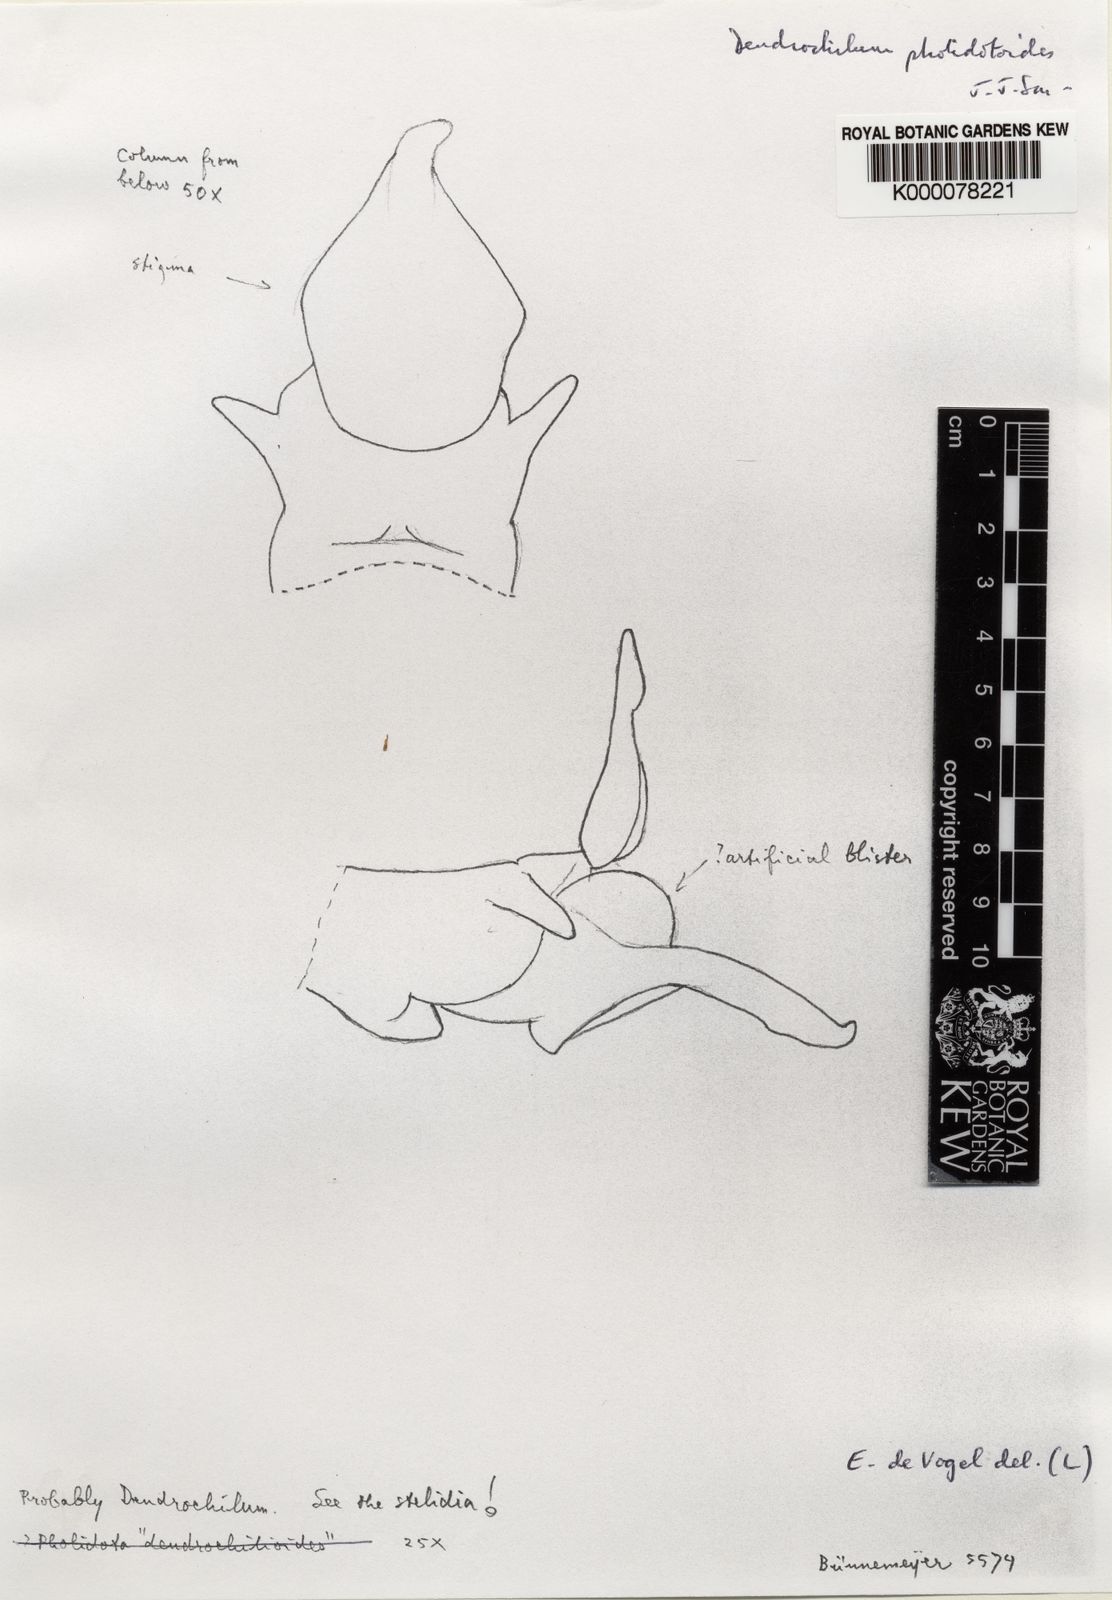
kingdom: Plantae
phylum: Tracheophyta
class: Liliopsida
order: Asparagales
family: Orchidaceae
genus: Coelogyne
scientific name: Coelogyne
